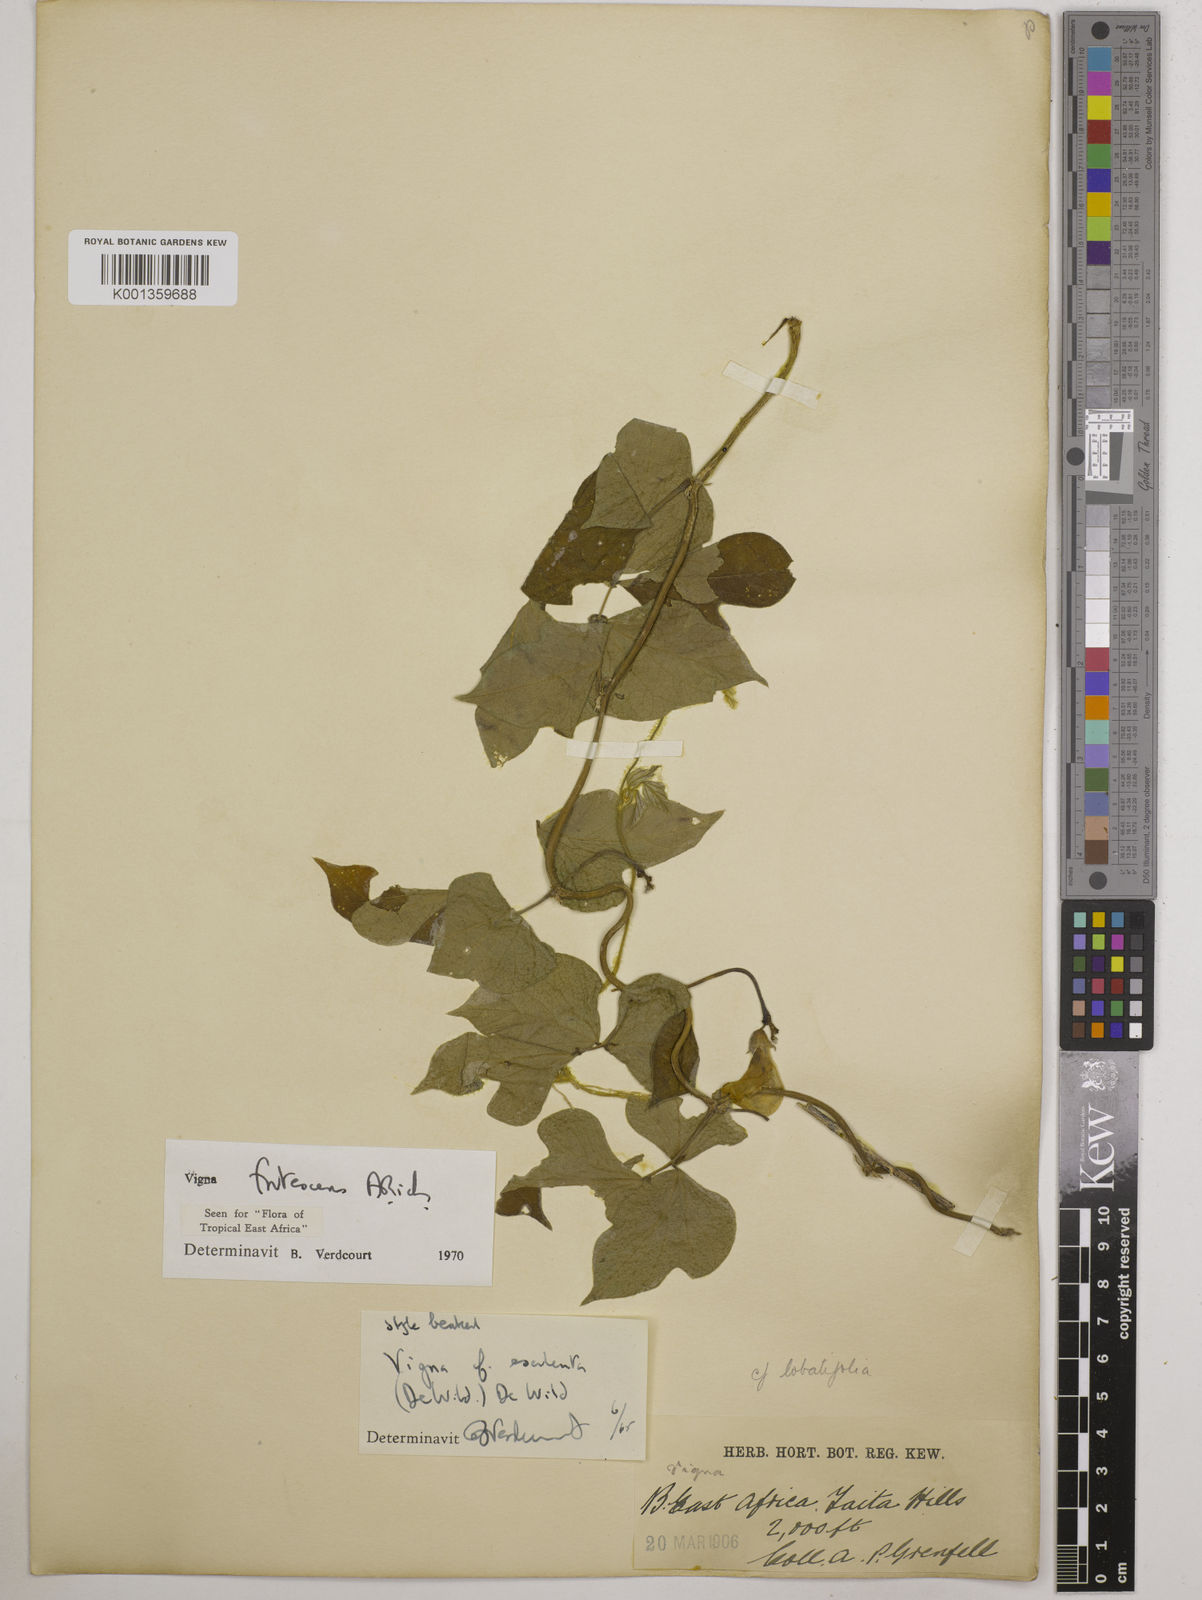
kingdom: Plantae
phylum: Tracheophyta
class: Magnoliopsida
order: Fabales
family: Fabaceae
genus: Vigna
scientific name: Vigna frutescens
